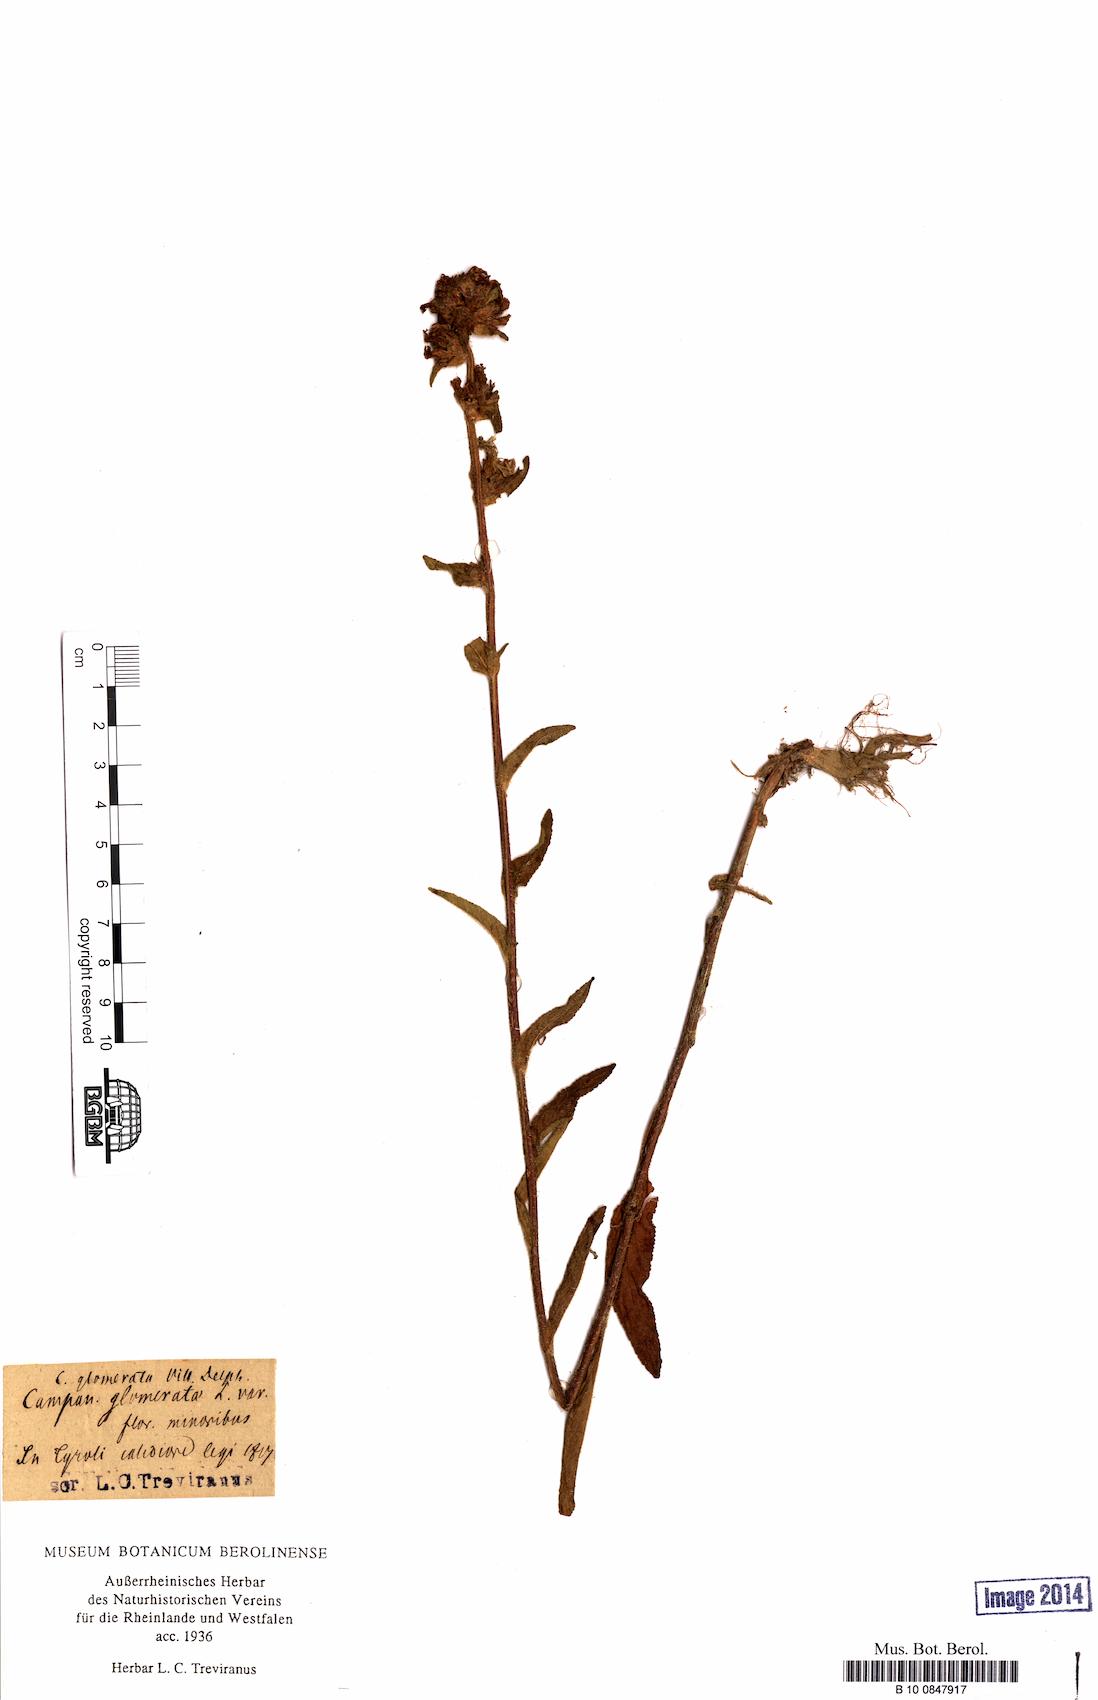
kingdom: Plantae
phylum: Tracheophyta
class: Magnoliopsida
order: Asterales
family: Campanulaceae
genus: Campanula
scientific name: Campanula glomerata
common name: Clustered bellflower
